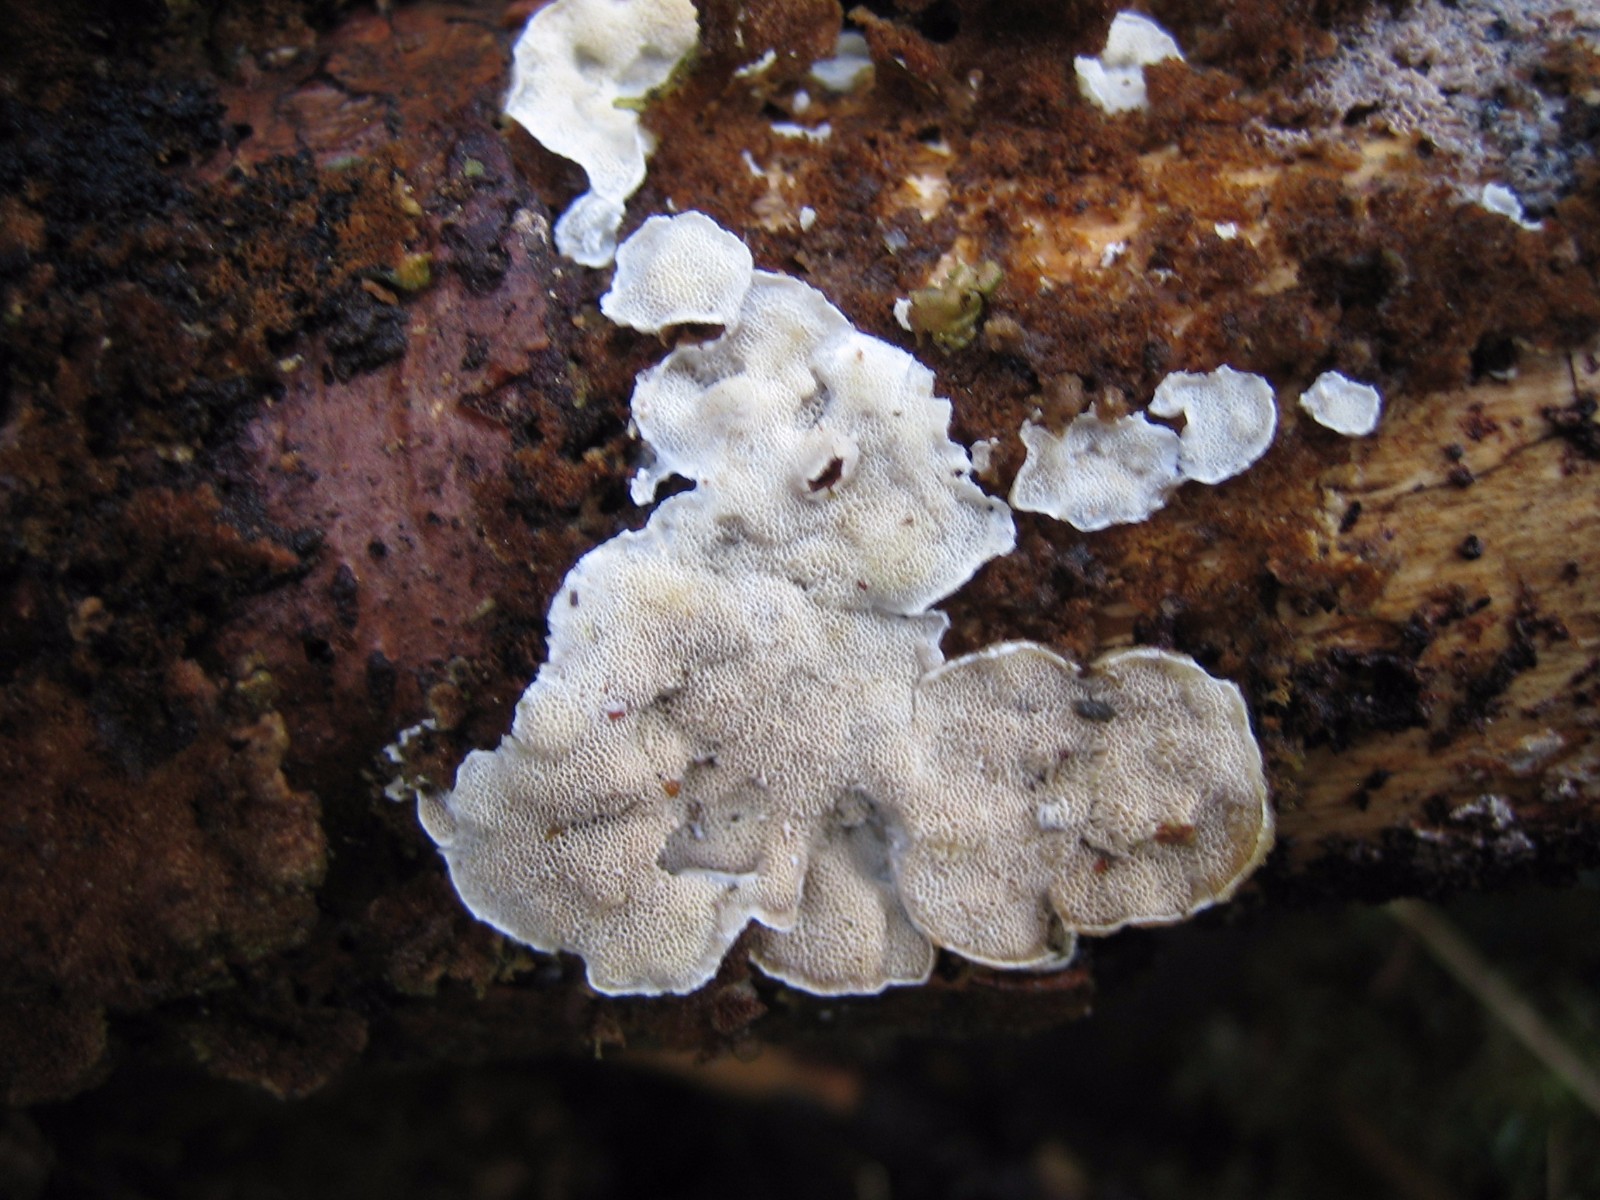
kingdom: Fungi
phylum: Basidiomycota
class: Agaricomycetes
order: Polyporales
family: Incrustoporiaceae
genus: Skeletocutis
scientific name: Skeletocutis carneogrisea
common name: rødgrå krystalporesvamp
